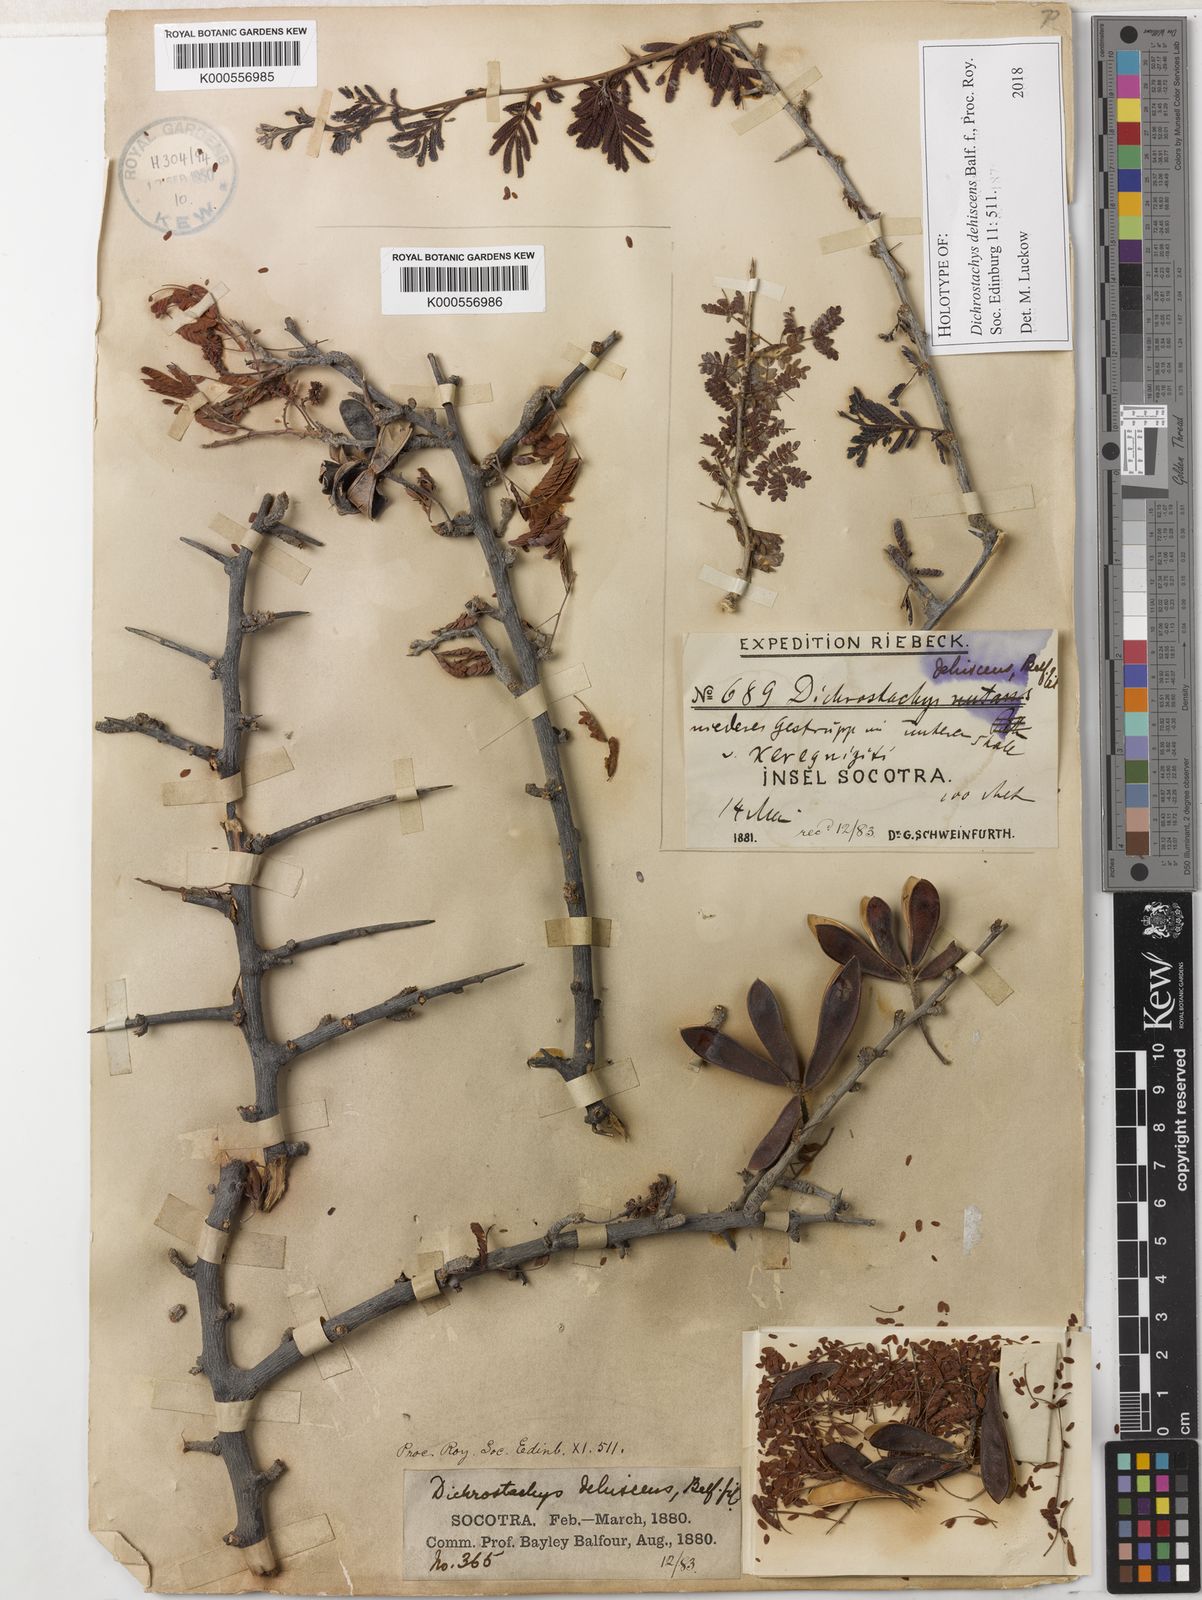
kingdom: Plantae
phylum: Tracheophyta
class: Magnoliopsida
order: Fabales
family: Fabaceae
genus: Dichrostachys
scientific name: Dichrostachys dehiscens
